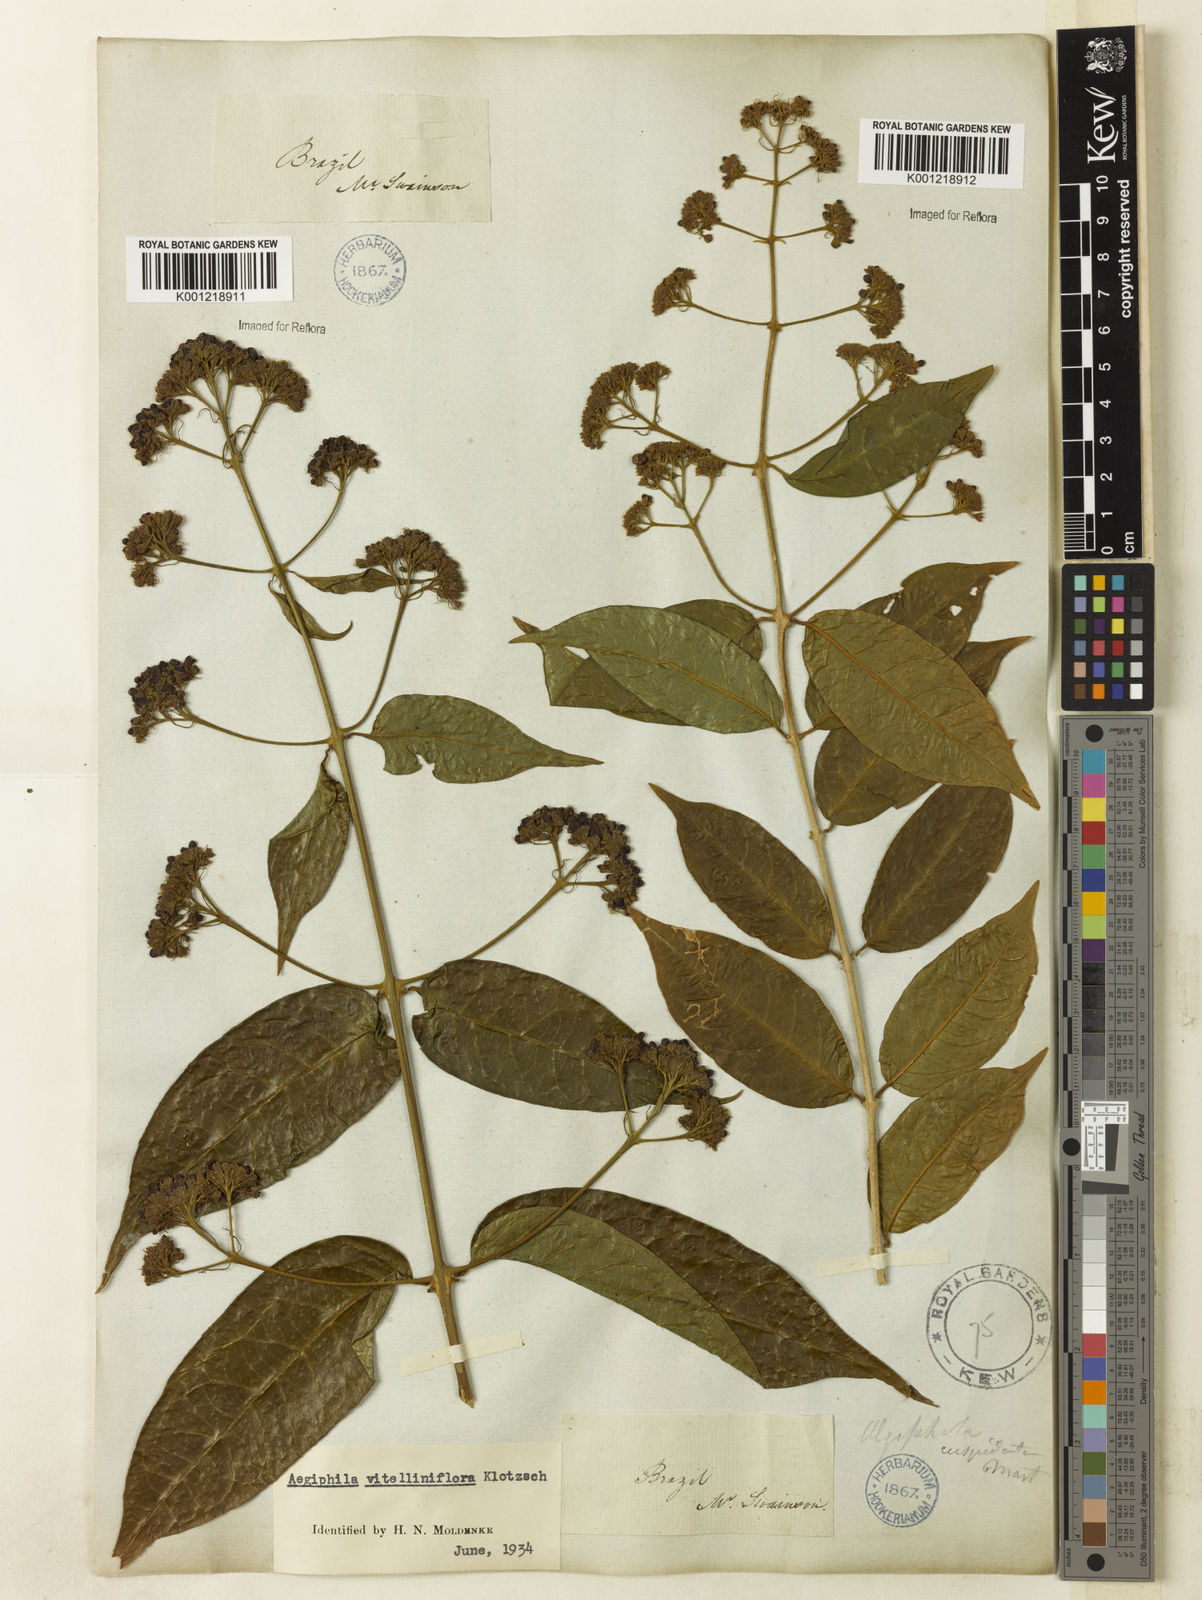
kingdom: Plantae
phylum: Tracheophyta
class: Magnoliopsida
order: Lamiales
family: Lamiaceae
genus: Aegiphila
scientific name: Aegiphila
